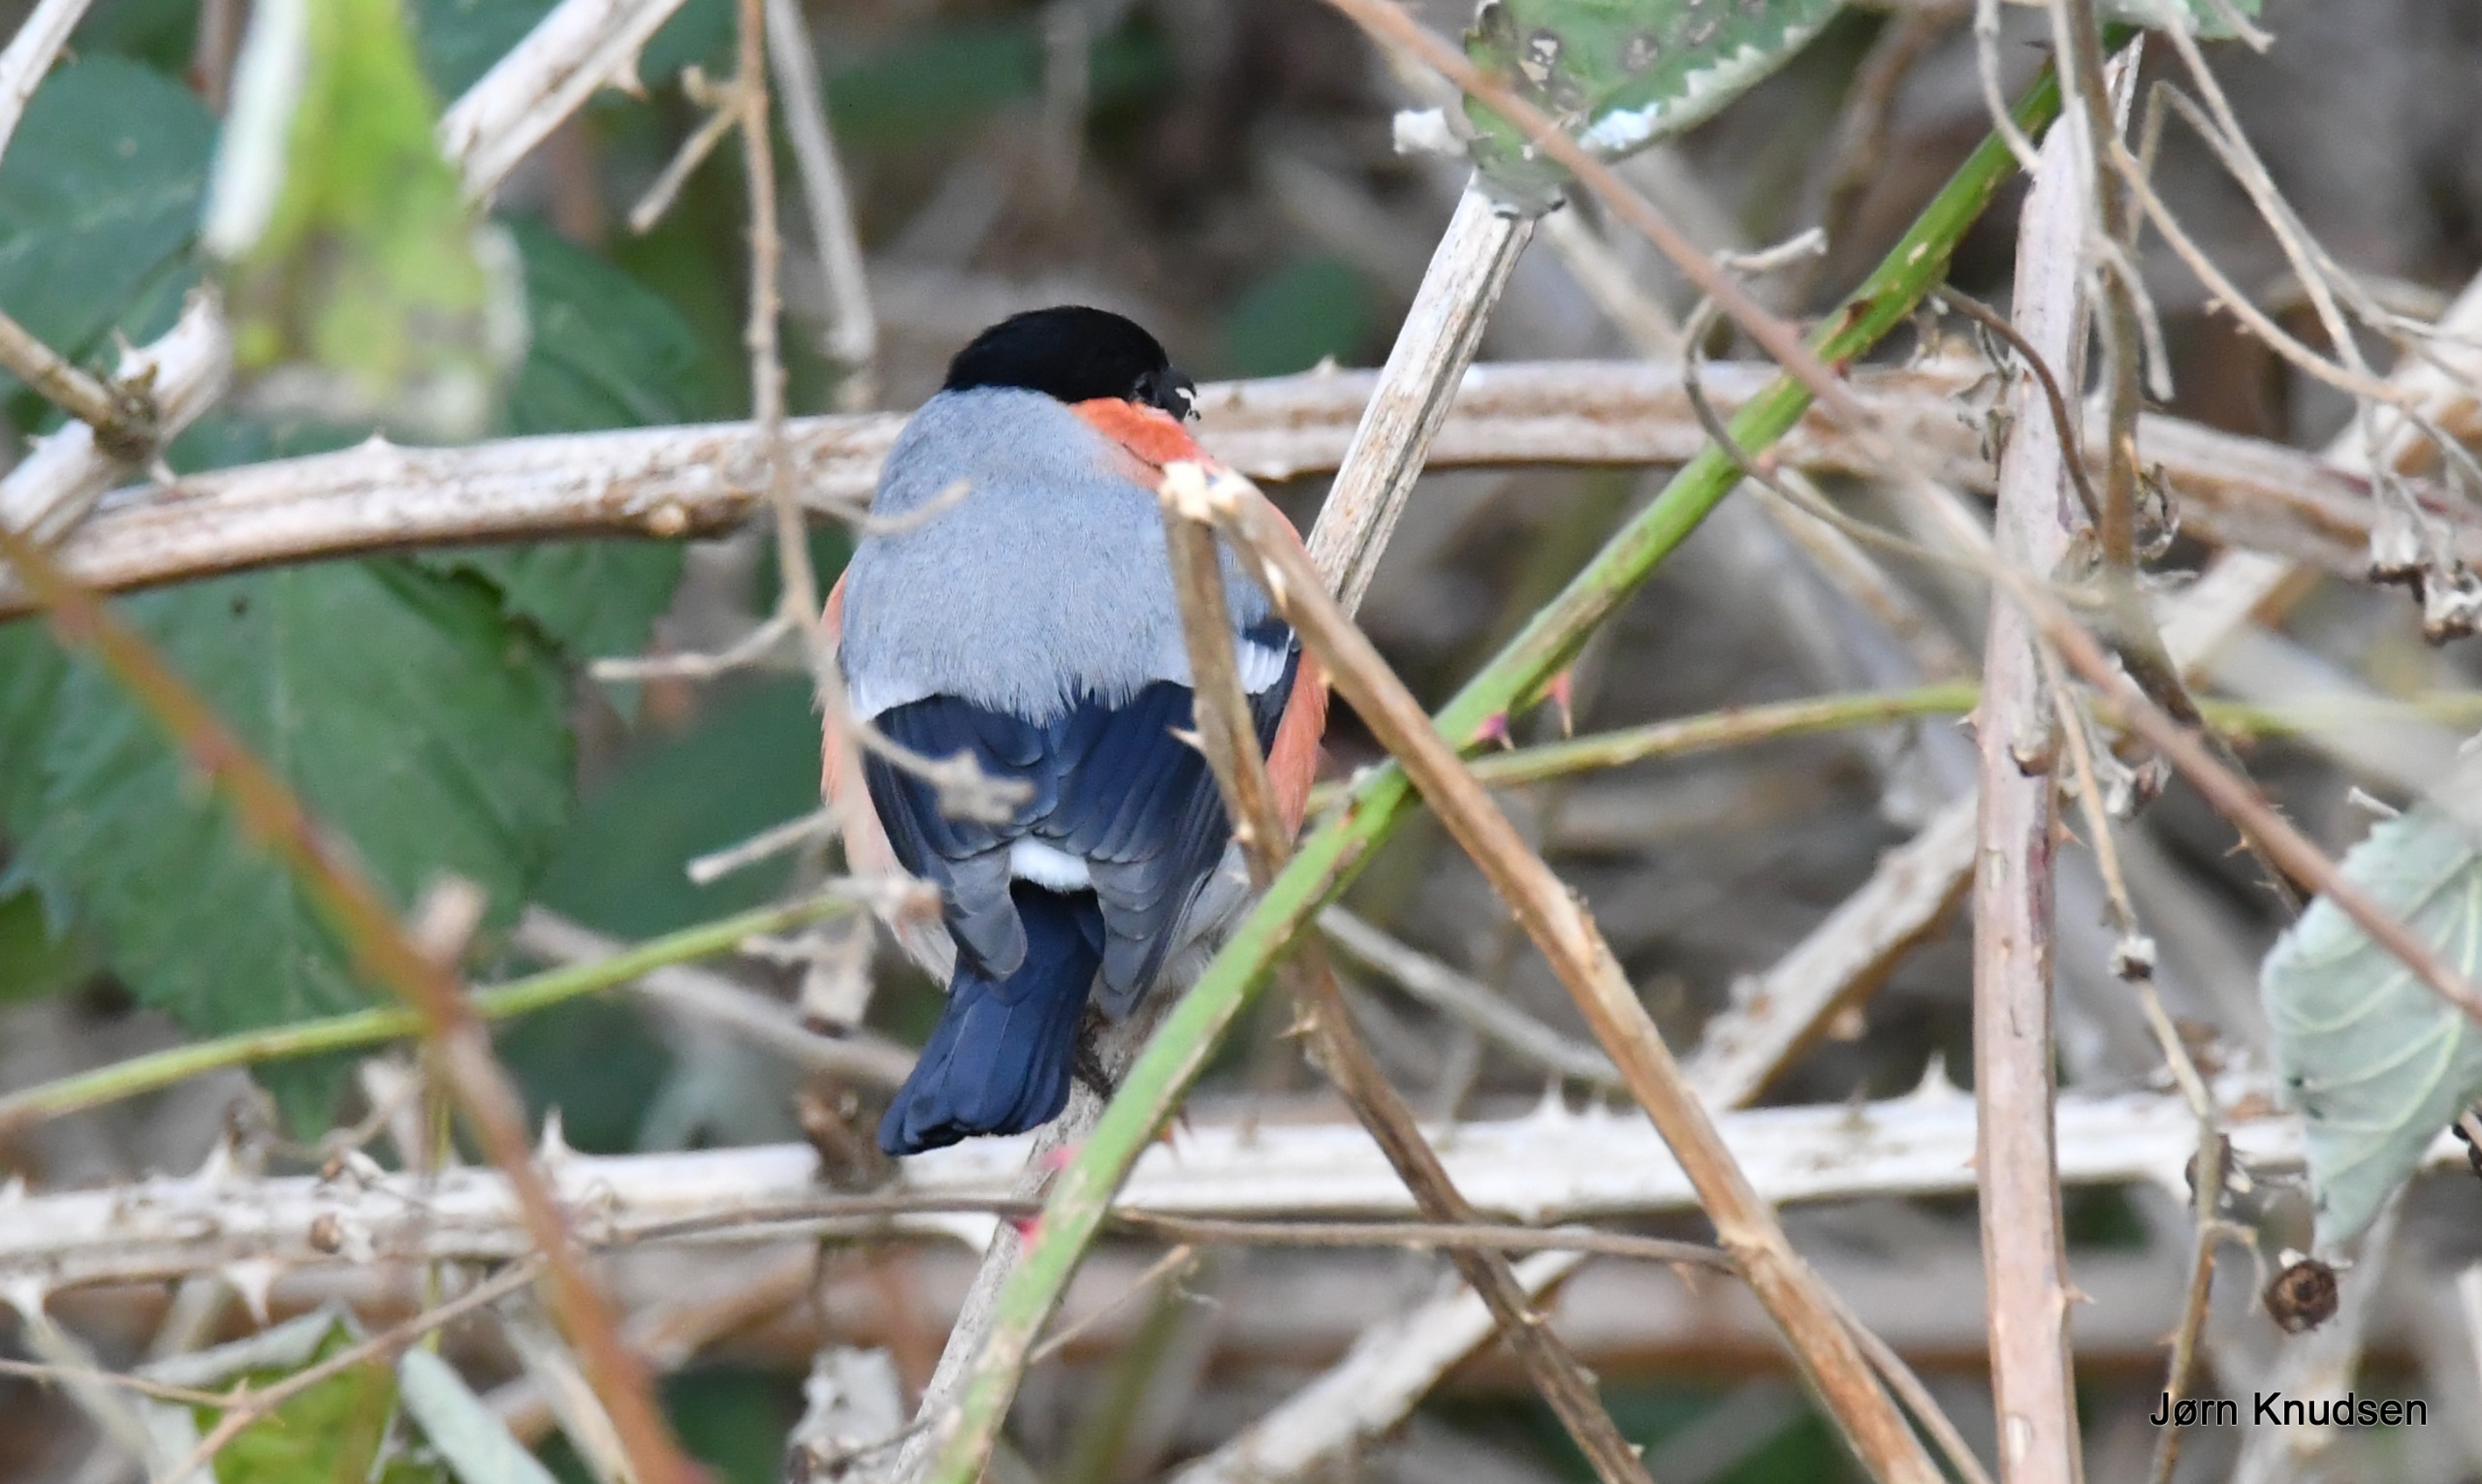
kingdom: Animalia
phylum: Chordata
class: Aves
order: Passeriformes
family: Fringillidae
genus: Pyrrhula
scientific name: Pyrrhula pyrrhula
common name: Dompap
